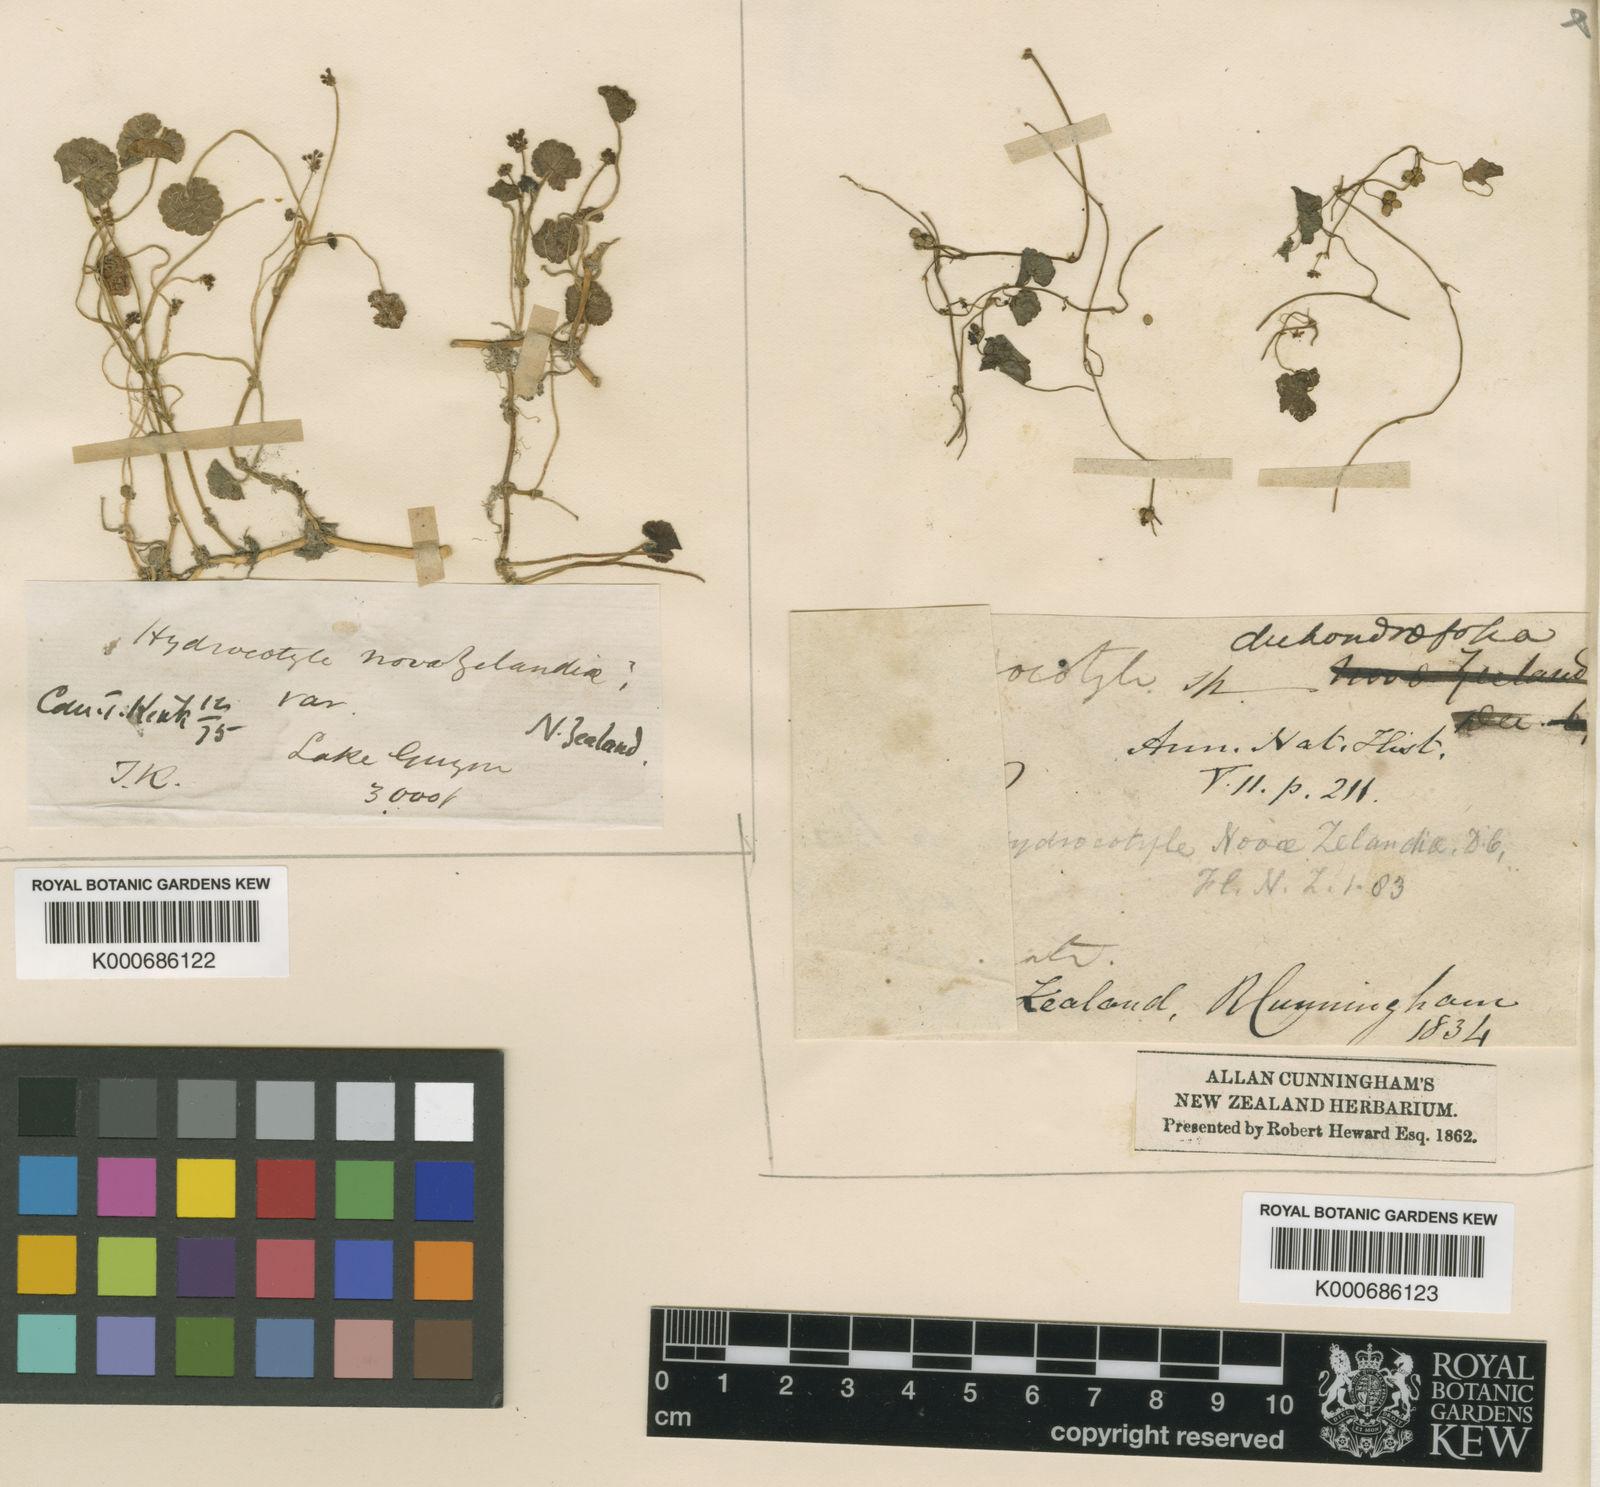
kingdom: Plantae
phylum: Tracheophyta
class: Magnoliopsida
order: Apiales
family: Araliaceae
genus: Hydrocotyle
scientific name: Hydrocotyle novae-zeelandiae
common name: New zealand pennywort
